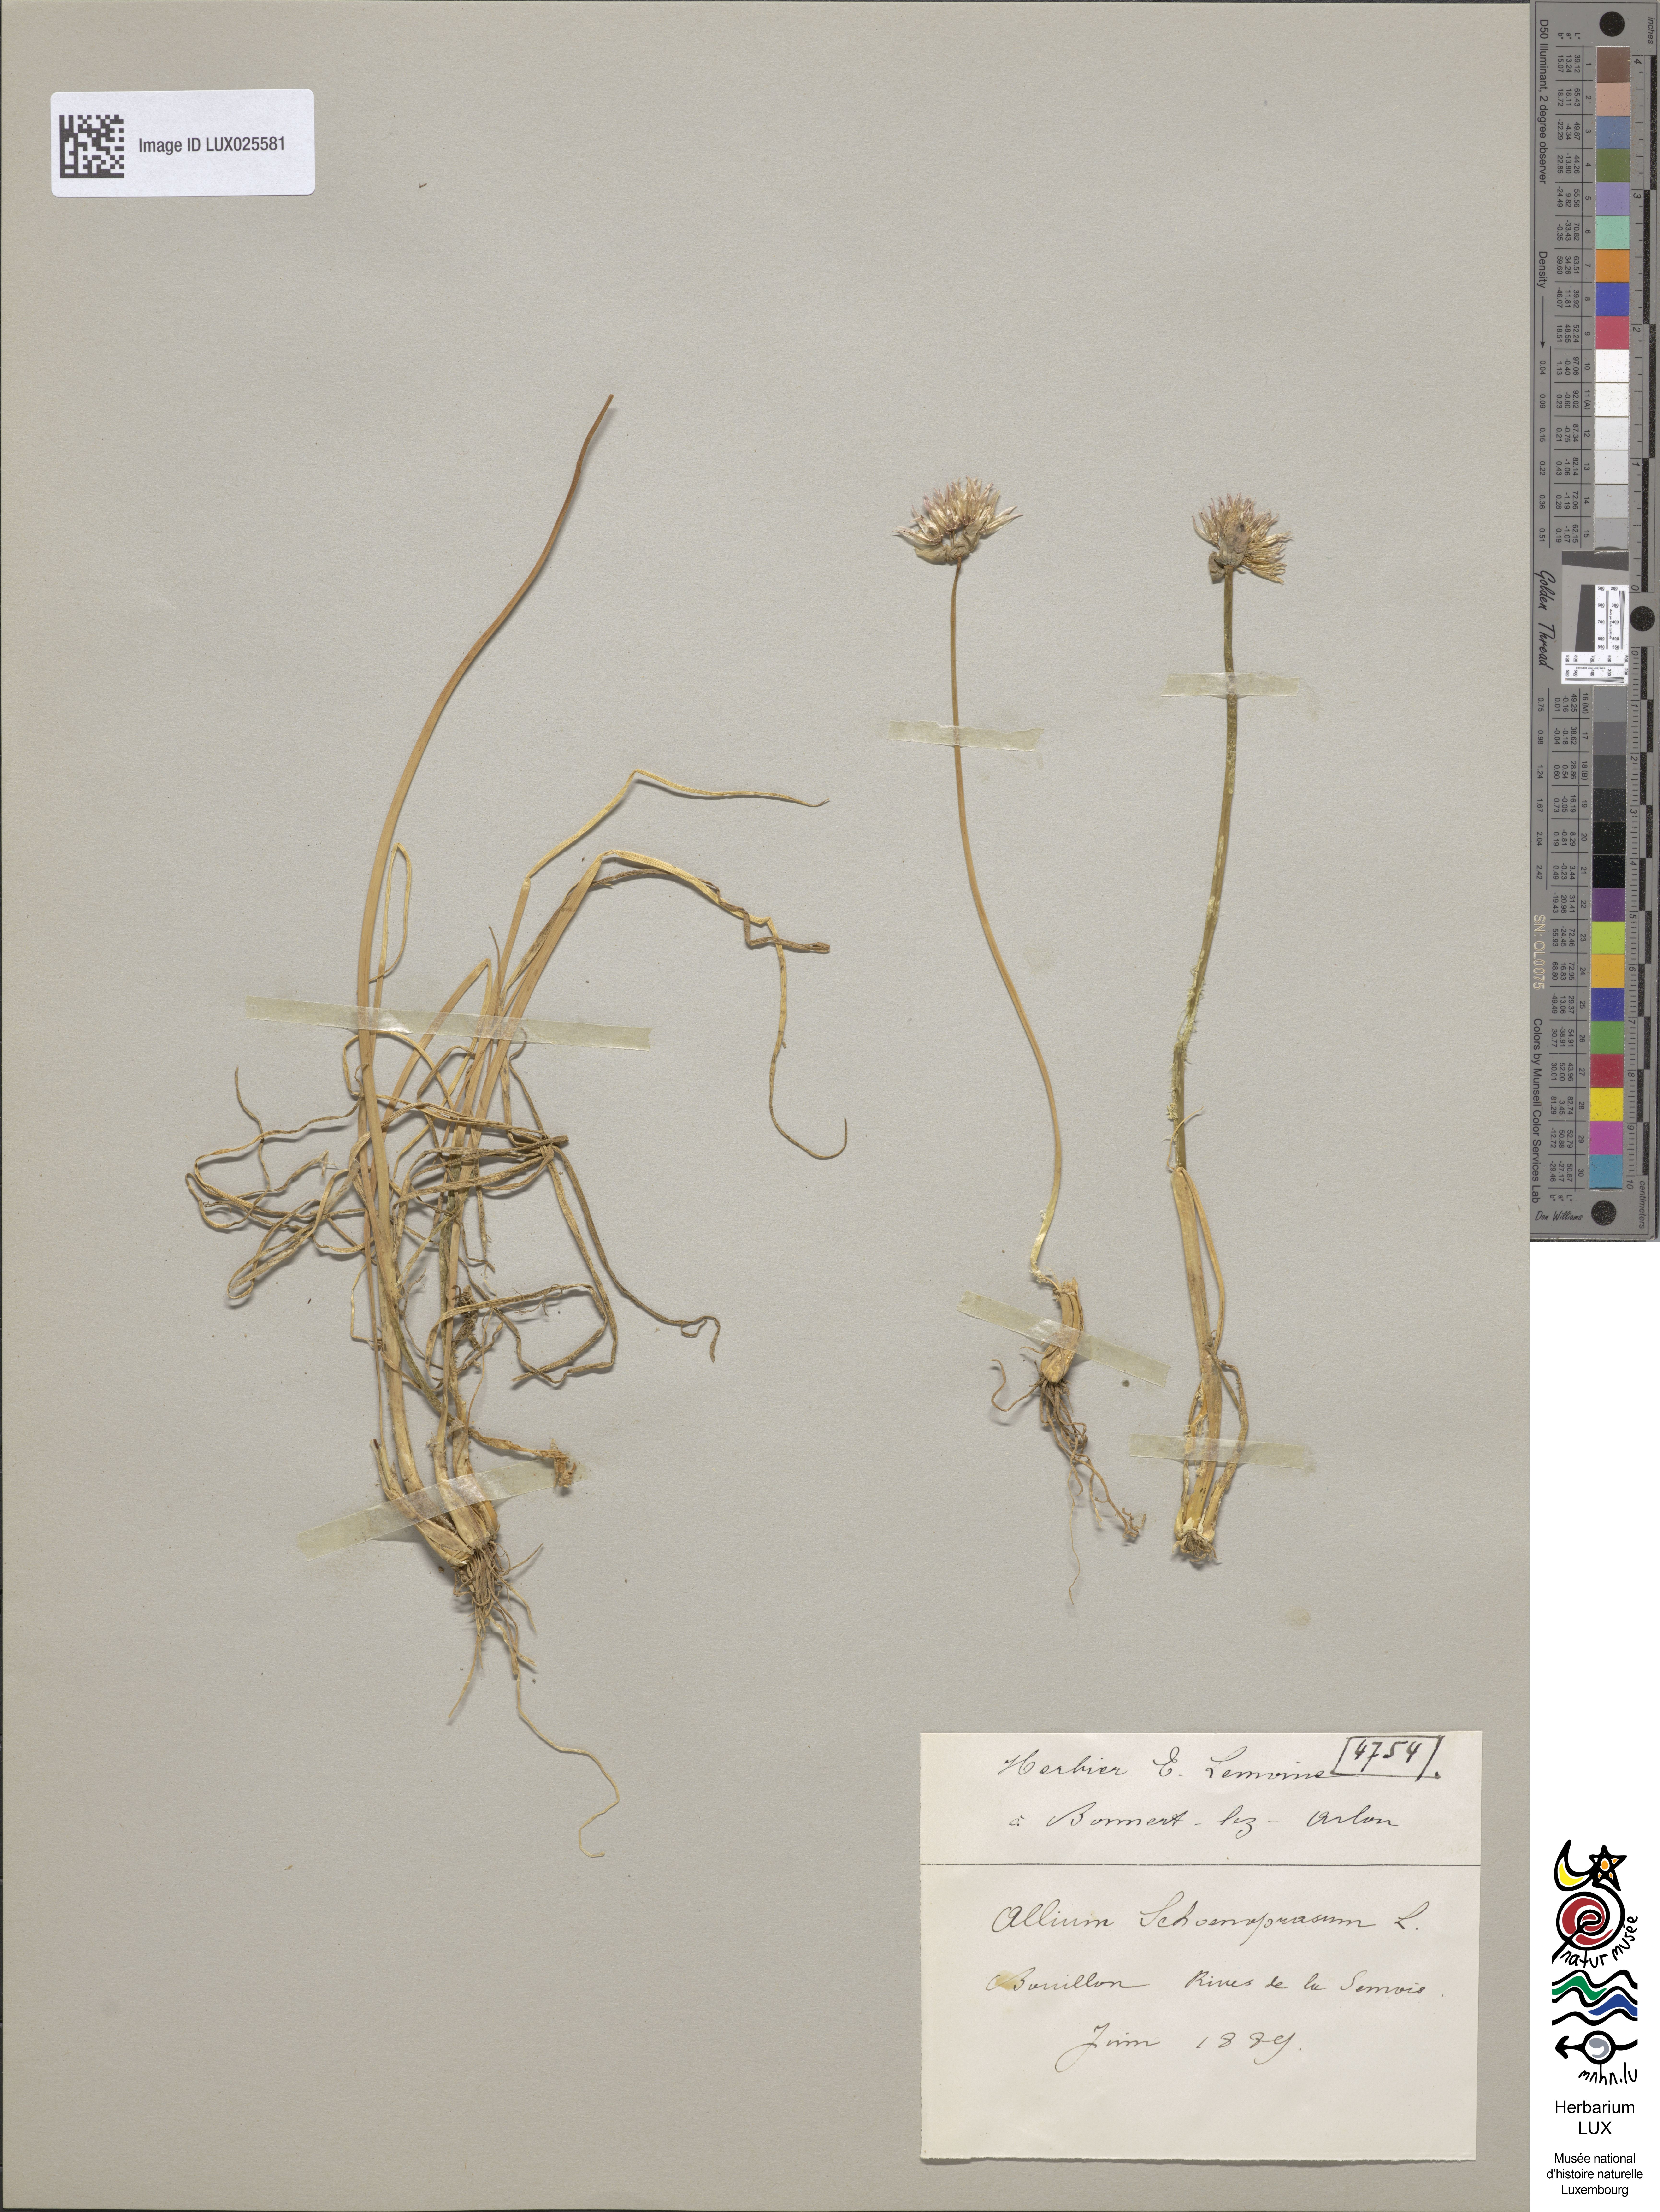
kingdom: Plantae
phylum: Tracheophyta
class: Liliopsida
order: Asparagales
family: Amaryllidaceae
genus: Allium
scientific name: Allium schoenoprasum
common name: Chives
